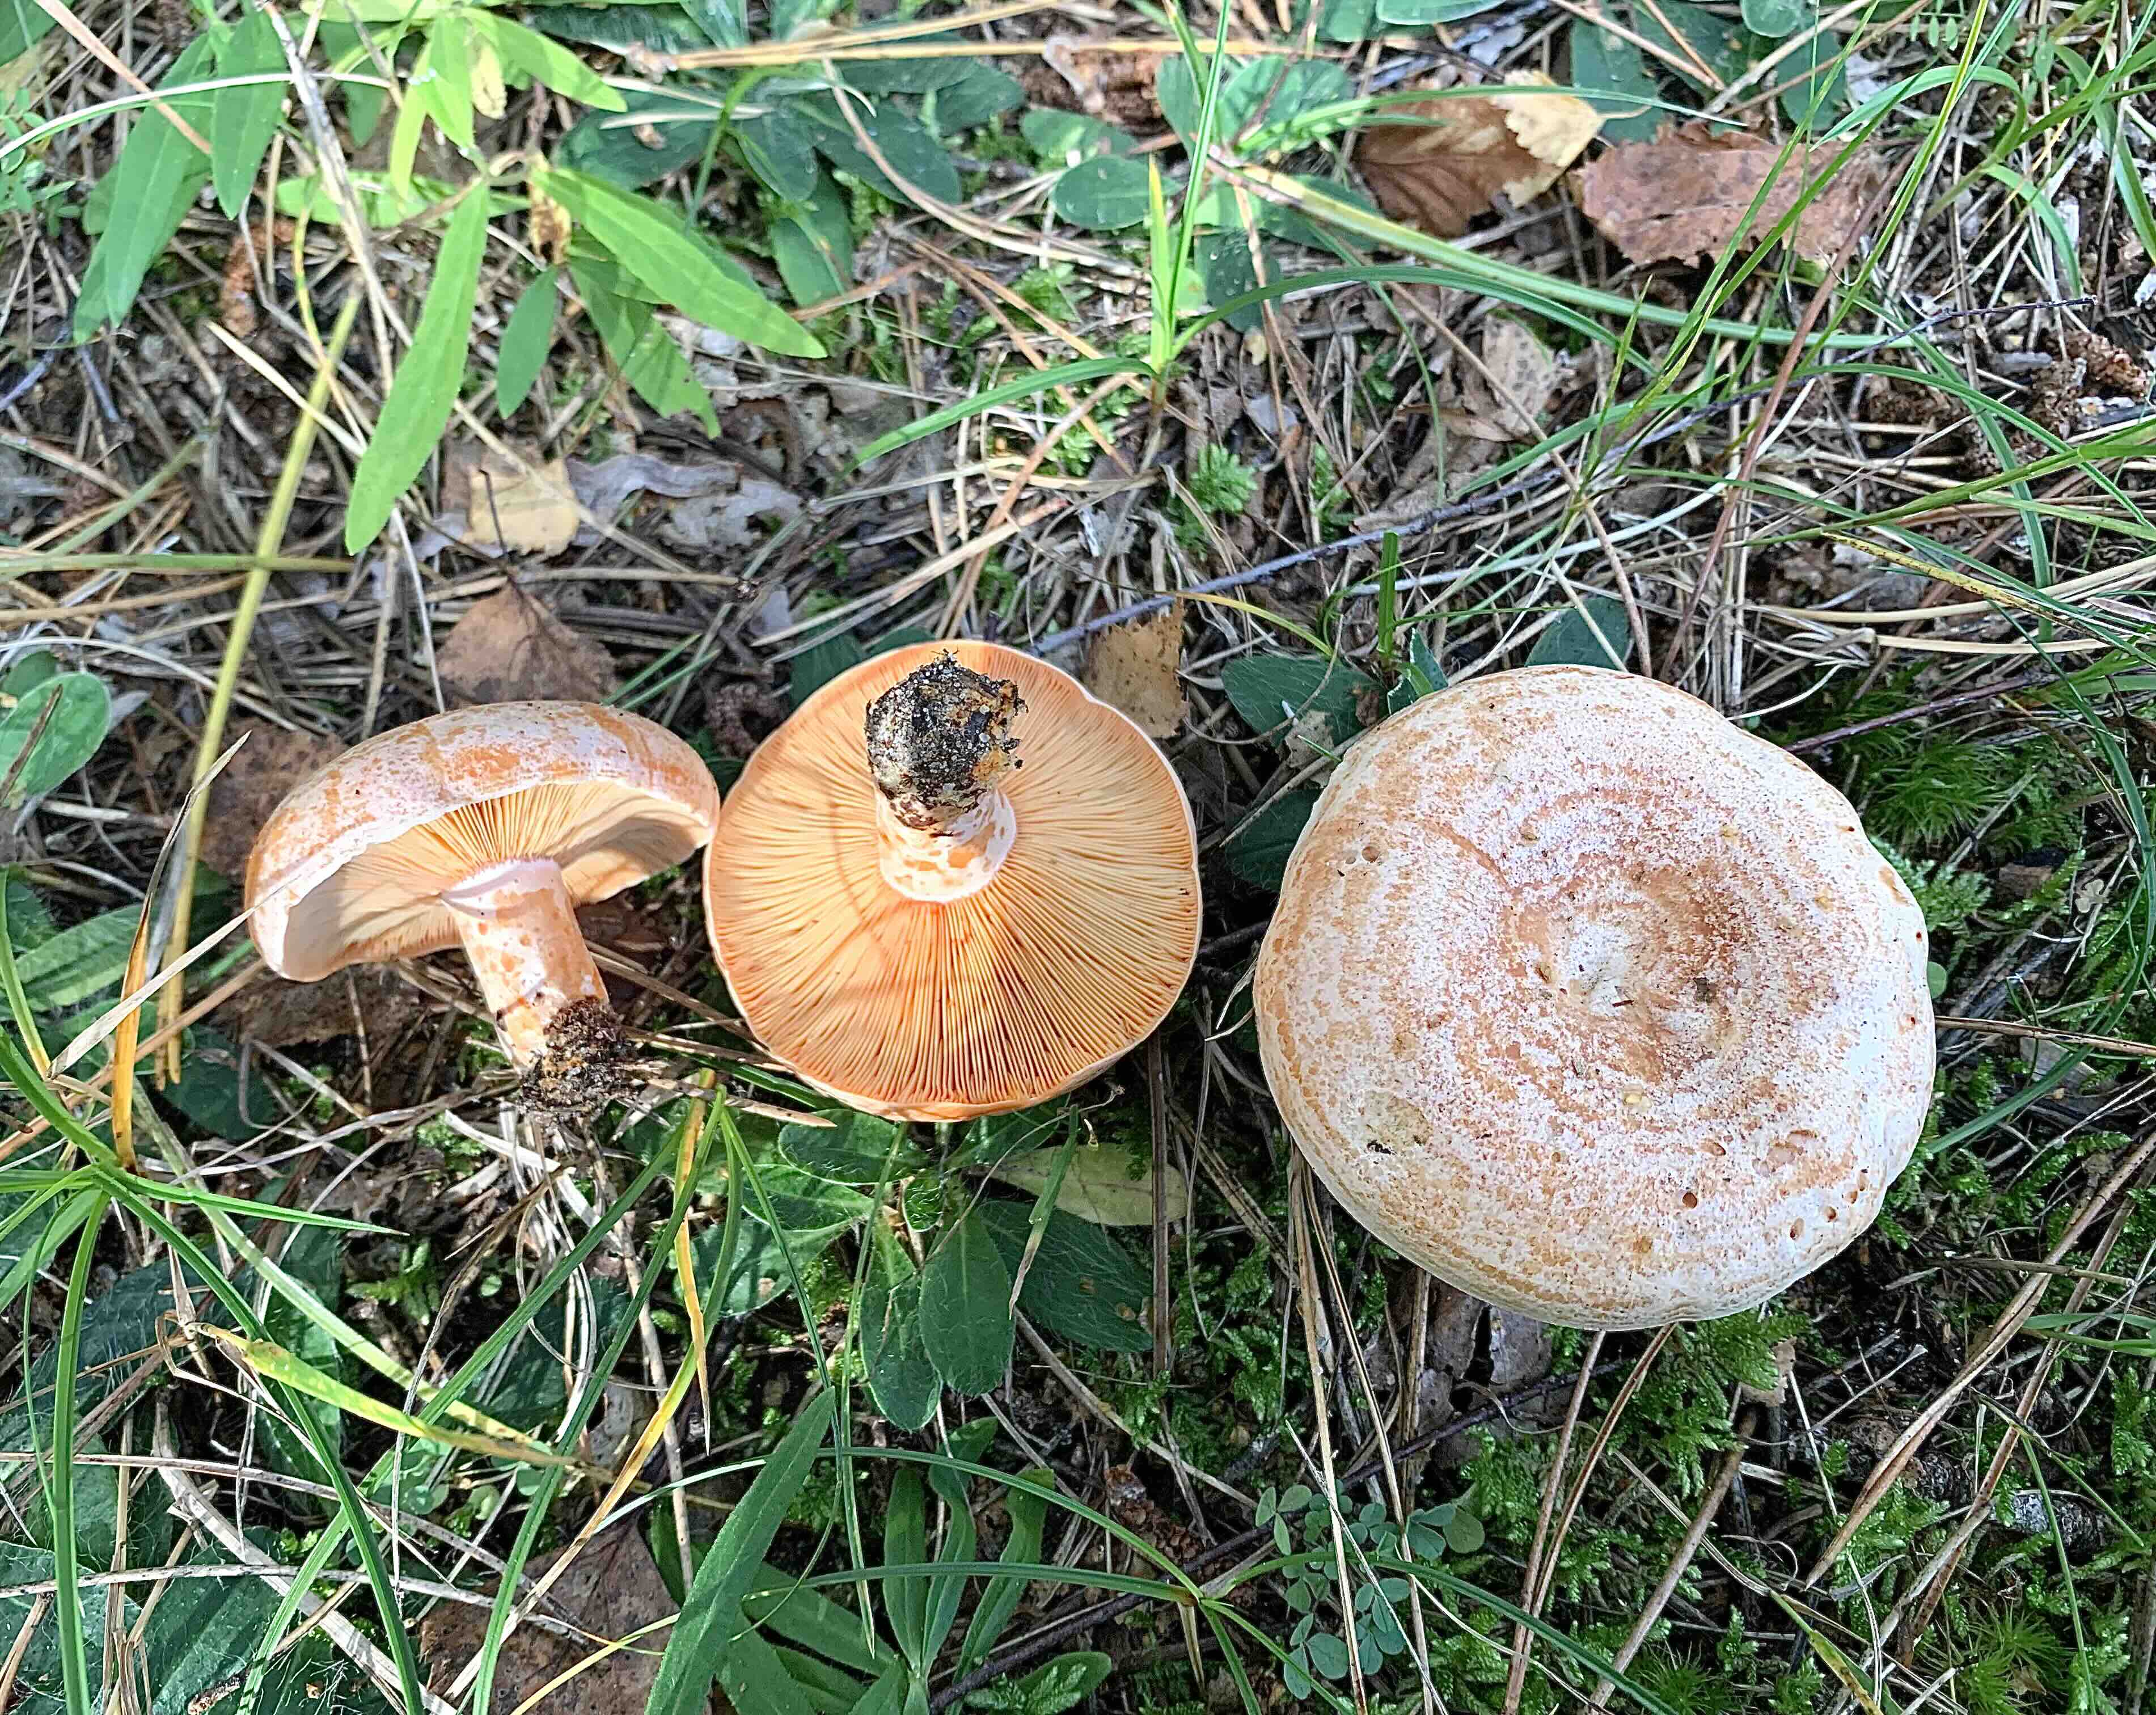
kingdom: Fungi
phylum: Basidiomycota
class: Agaricomycetes
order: Russulales
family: Russulaceae
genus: Lactarius
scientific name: Lactarius deliciosus
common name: velsmagende mælkehat
